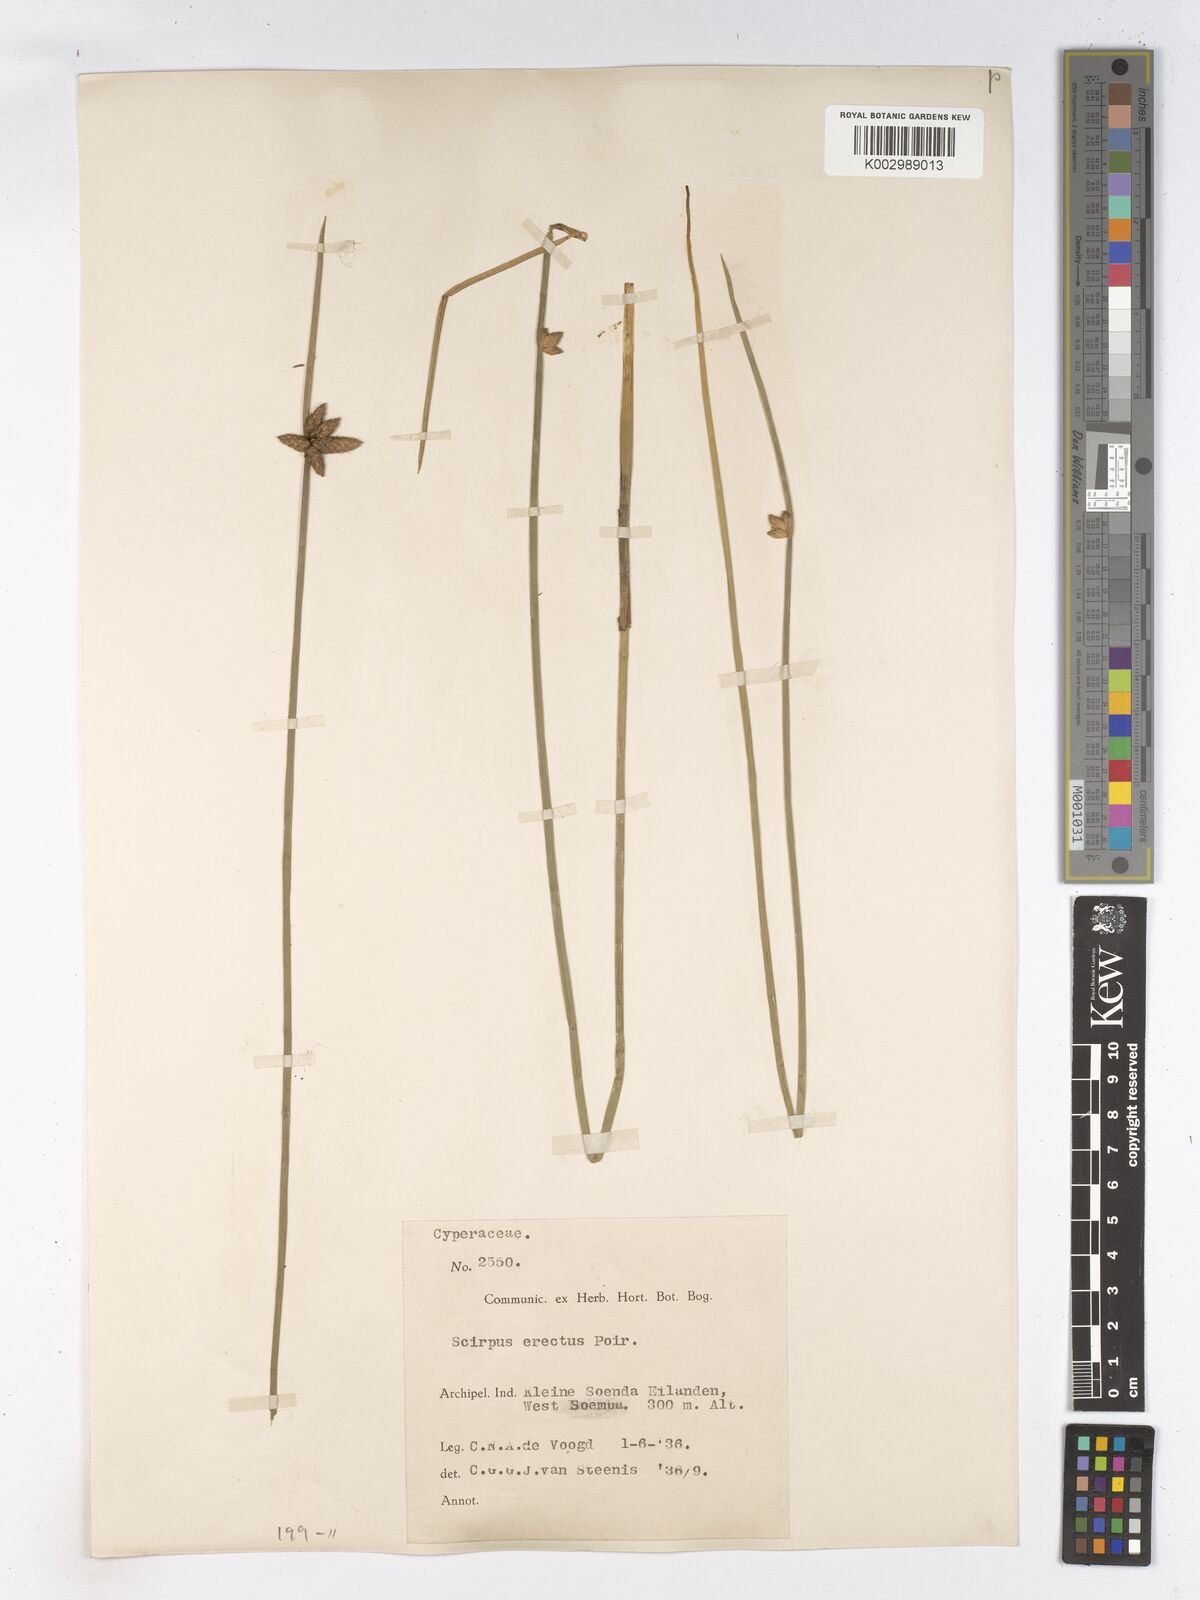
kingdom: Plantae
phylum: Tracheophyta
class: Liliopsida
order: Poales
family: Cyperaceae
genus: Schoenoplectiella
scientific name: Schoenoplectiella juncoides
